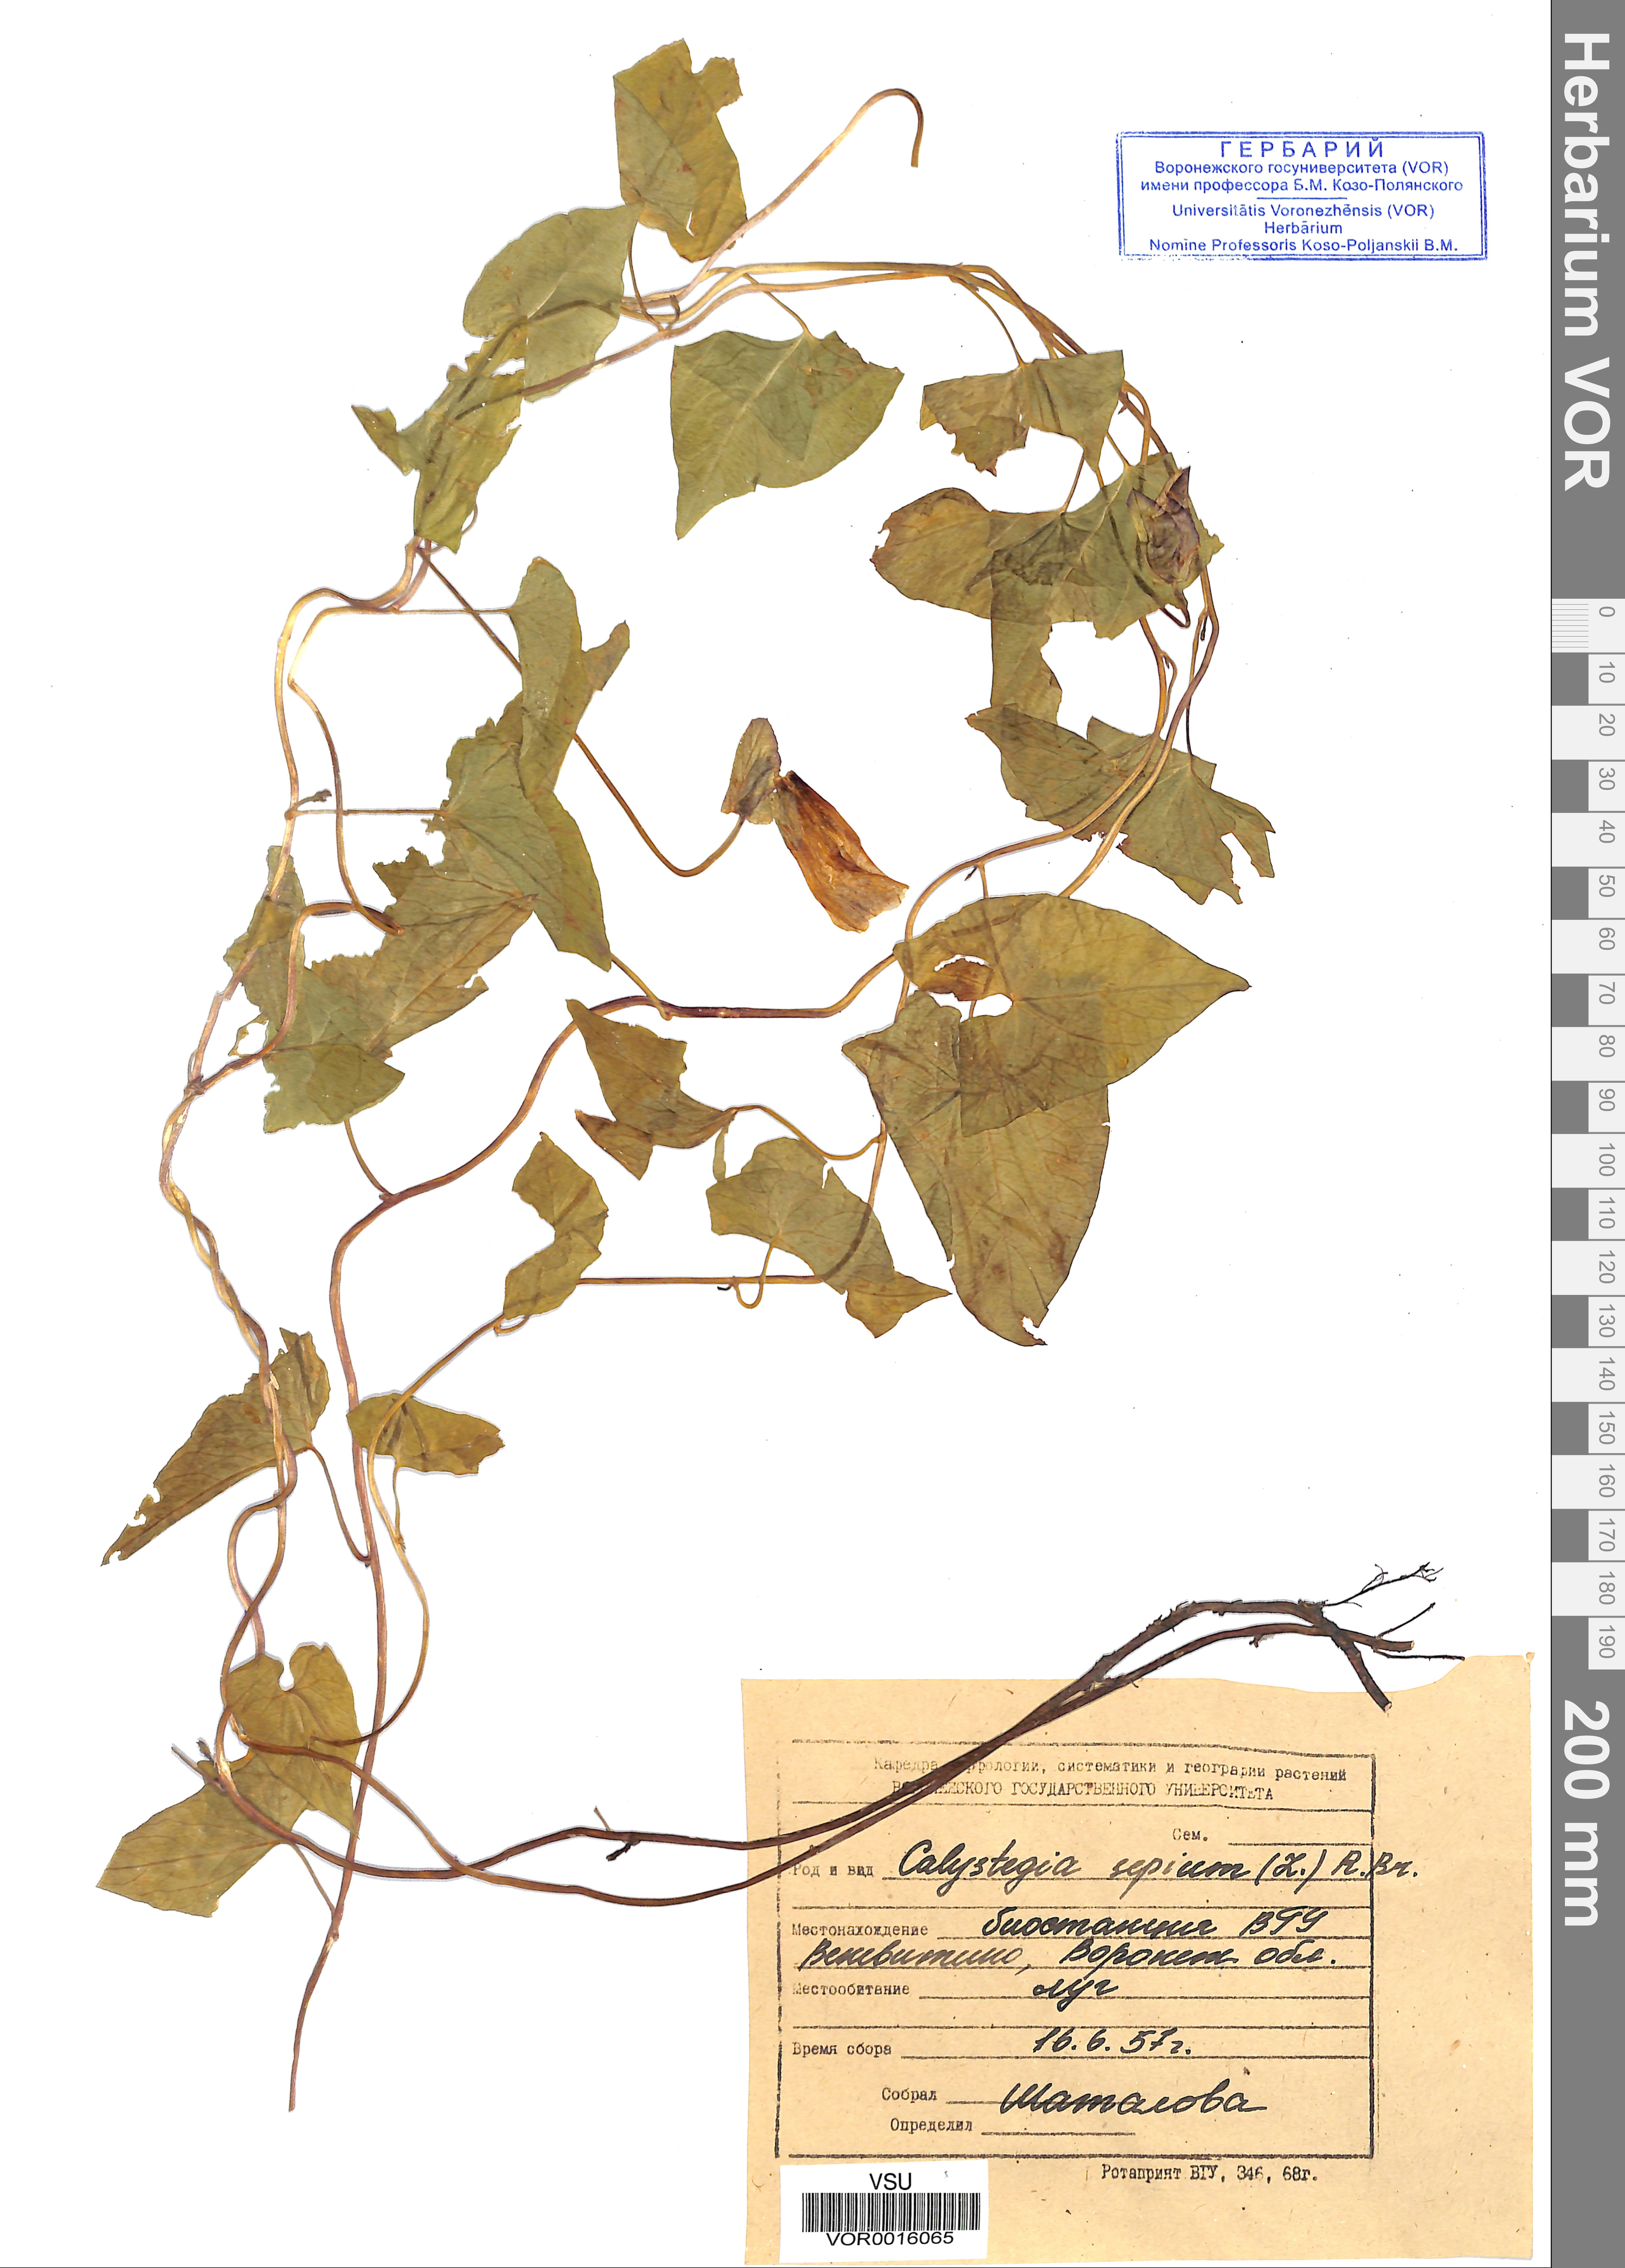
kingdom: Plantae
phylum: Tracheophyta
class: Magnoliopsida
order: Solanales
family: Convolvulaceae
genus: Calystegia
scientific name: Calystegia sepium
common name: Hedge bindweed
